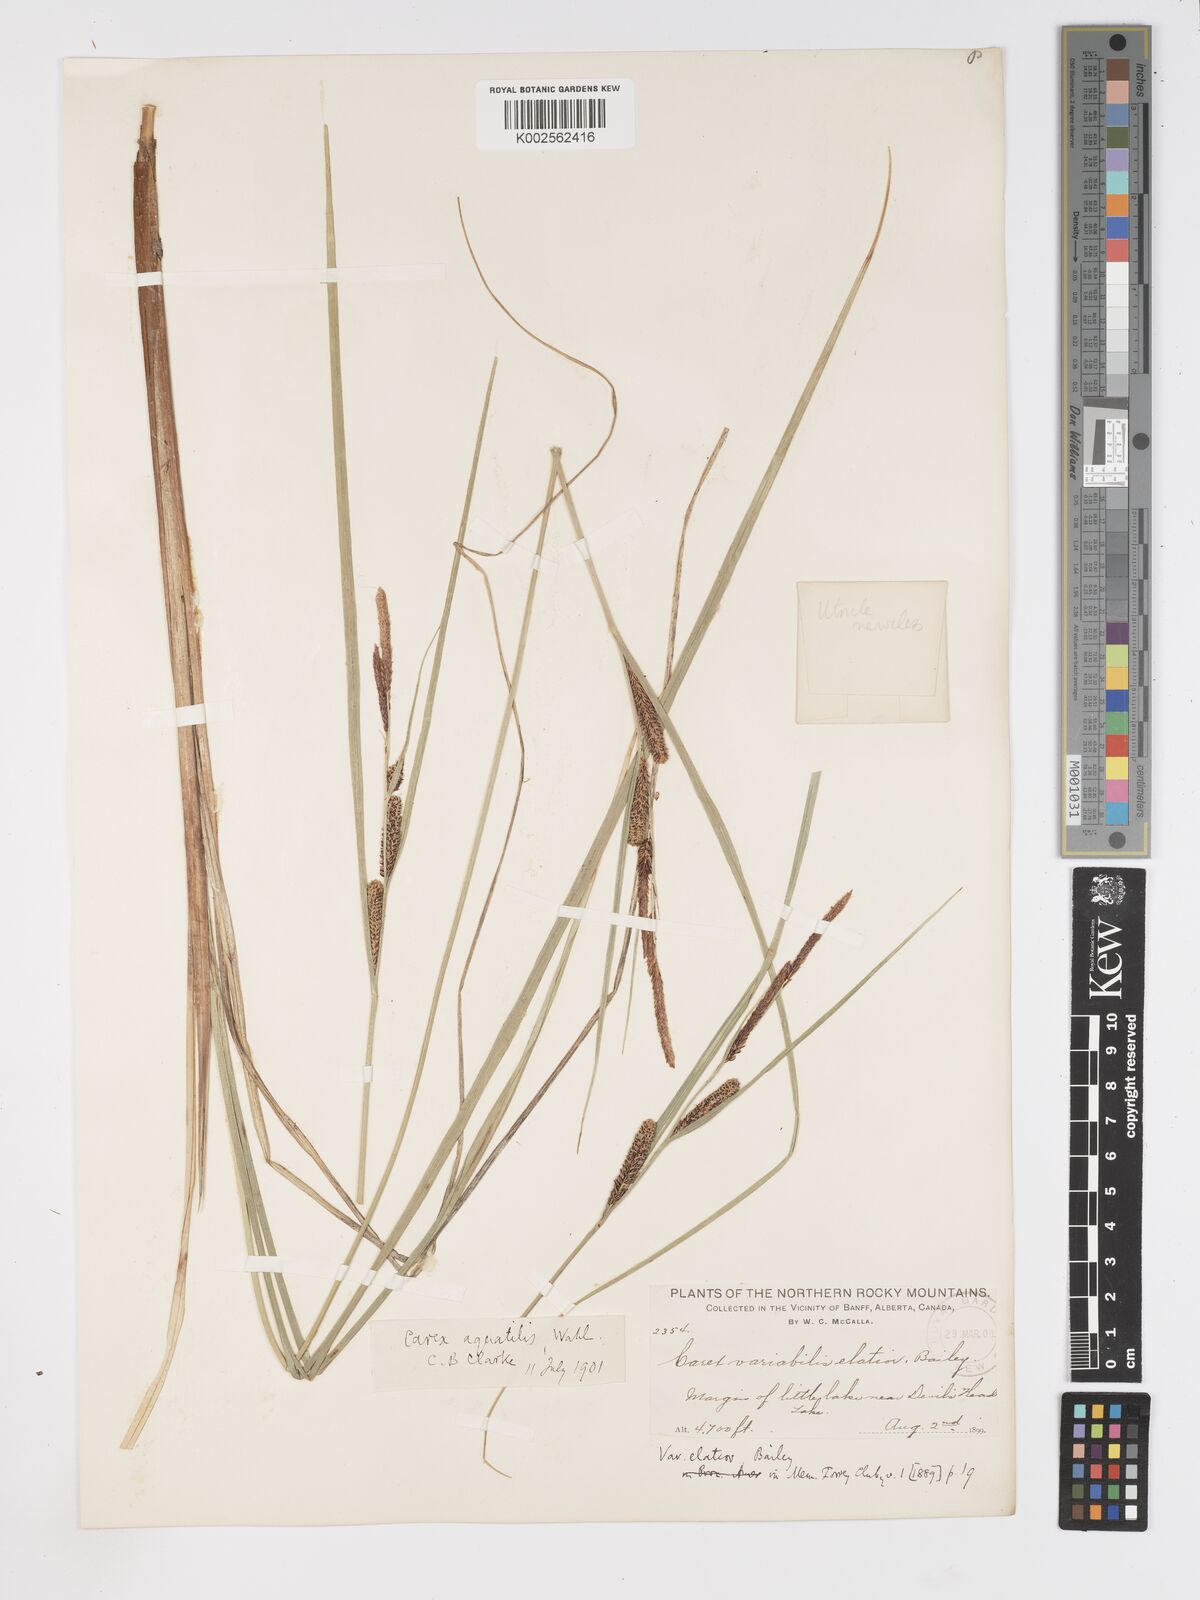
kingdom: Plantae
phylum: Tracheophyta
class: Liliopsida
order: Poales
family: Cyperaceae
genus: Carex
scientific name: Carex aquatilis
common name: Water sedge
